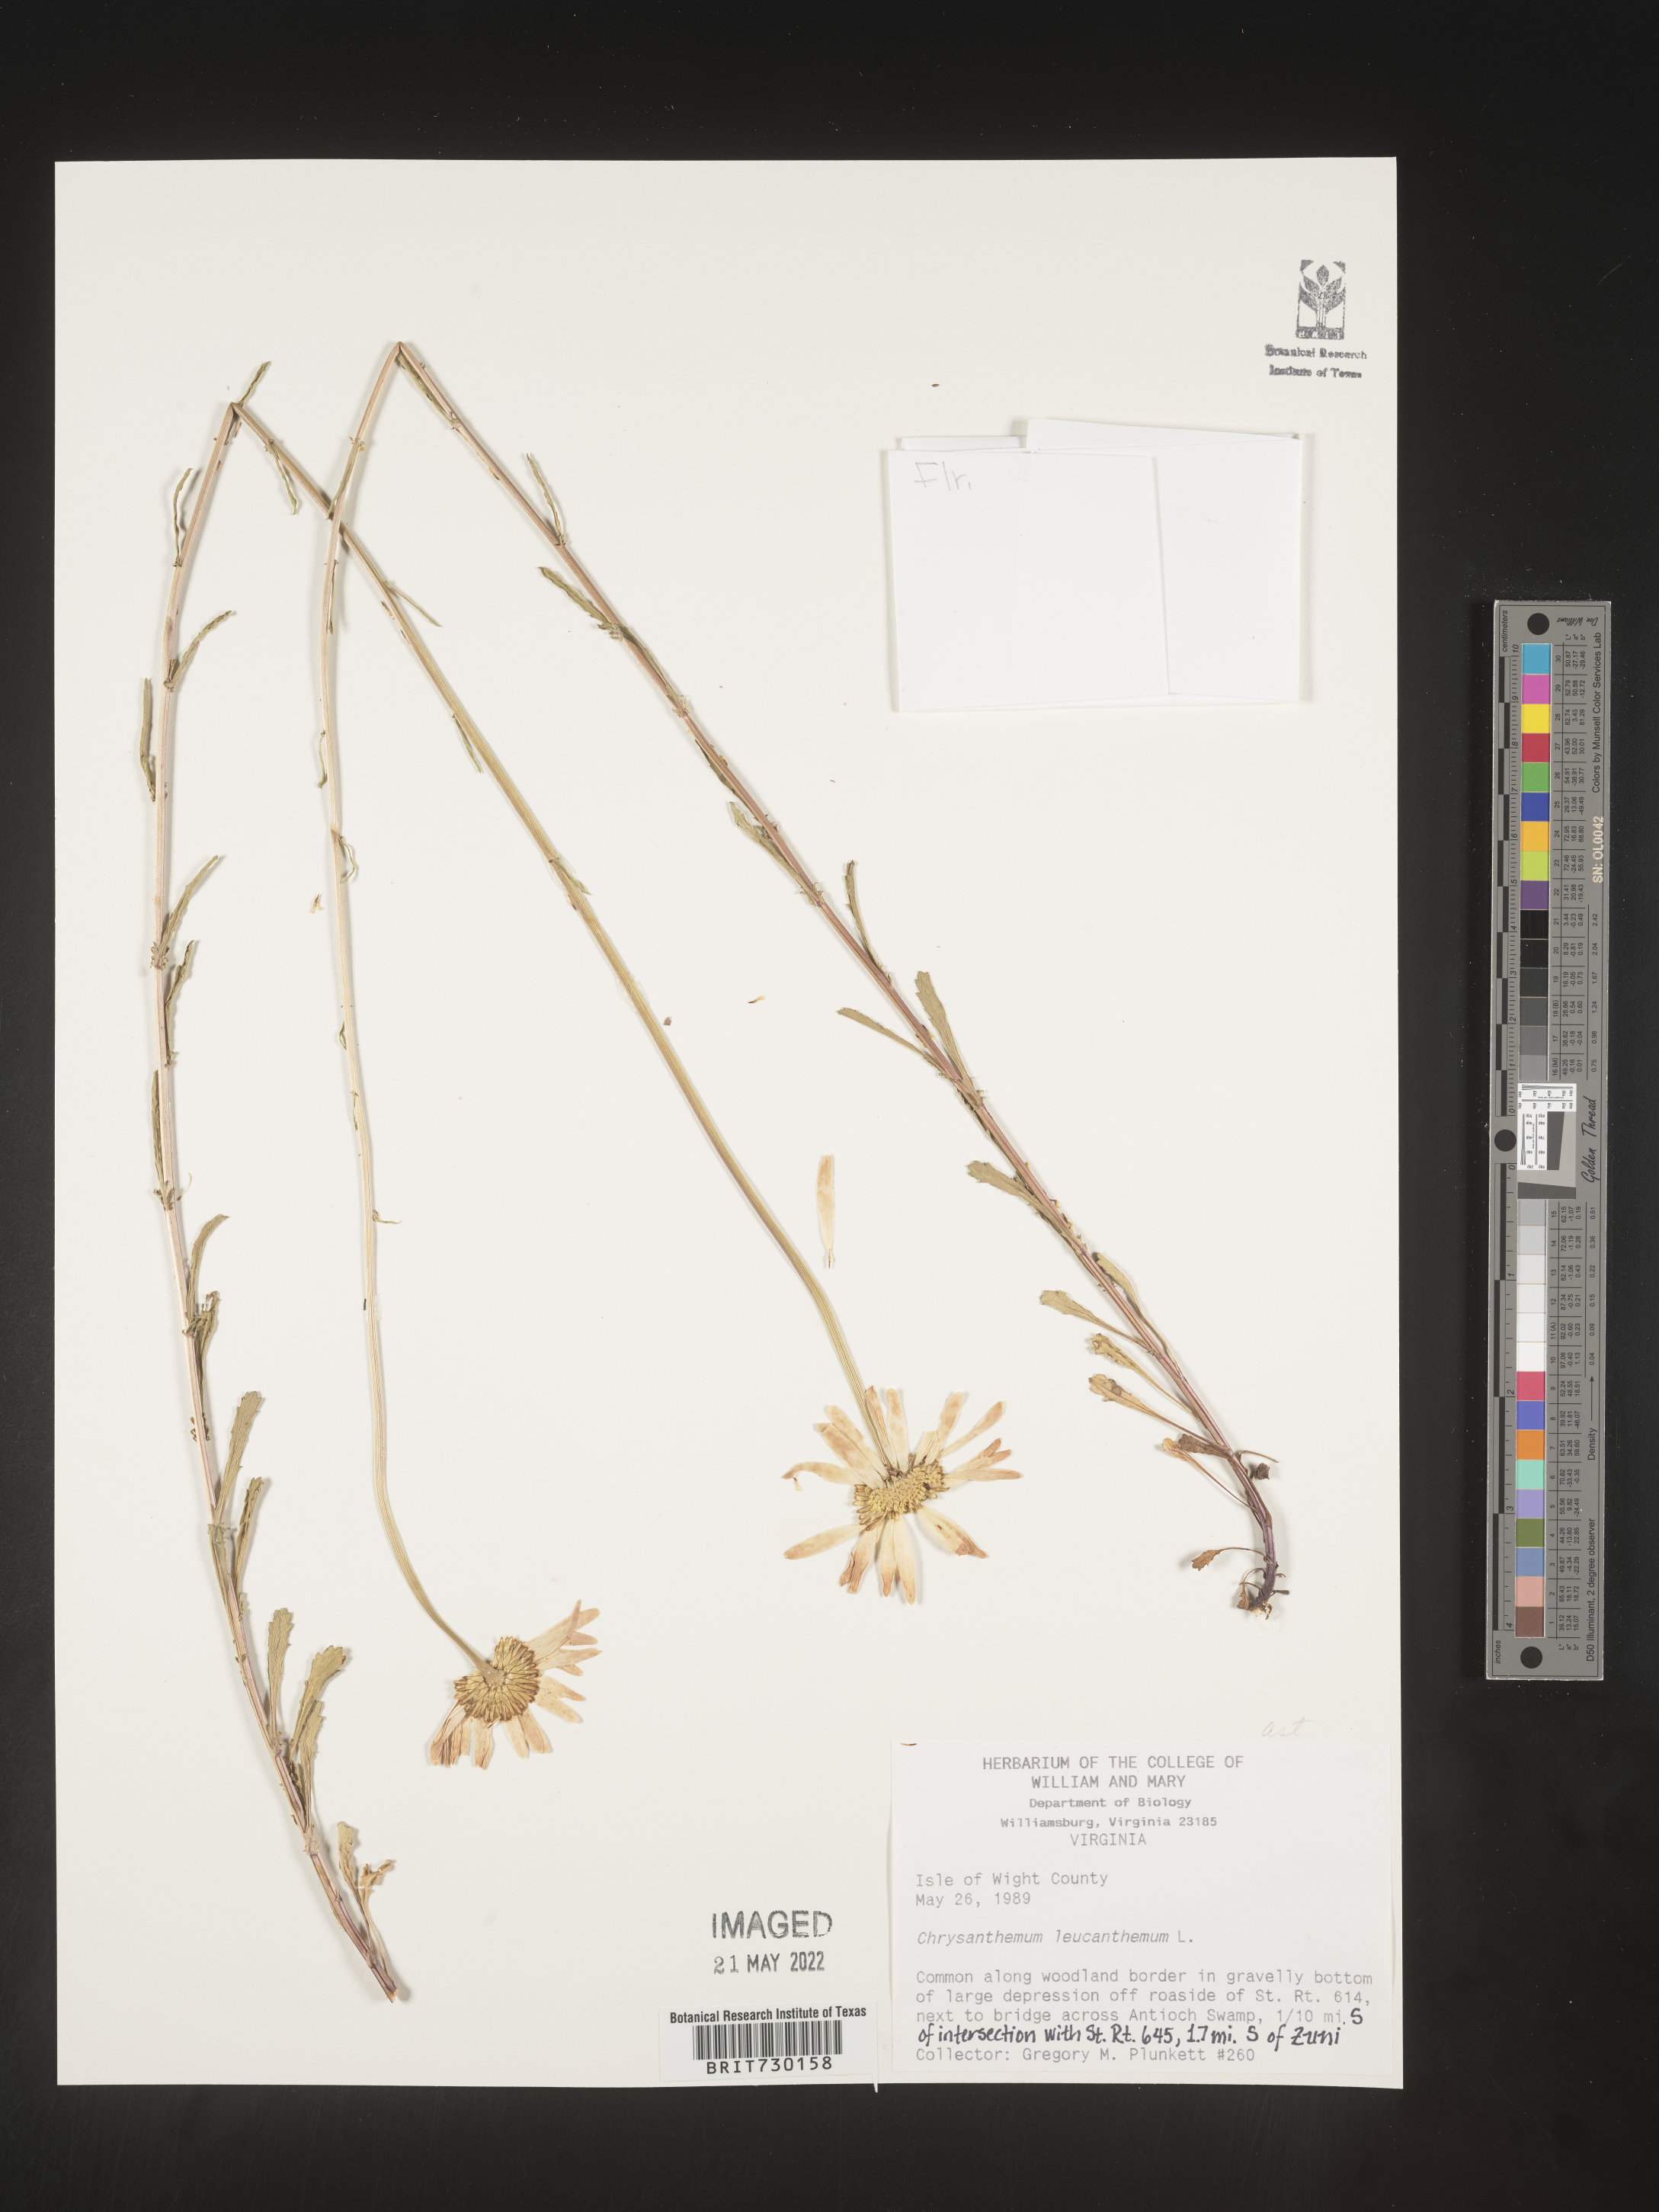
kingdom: Plantae
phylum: Tracheophyta
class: Magnoliopsida
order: Asterales
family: Asteraceae
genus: Leucanthemum
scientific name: Leucanthemum vulgare
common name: Oxeye daisy
